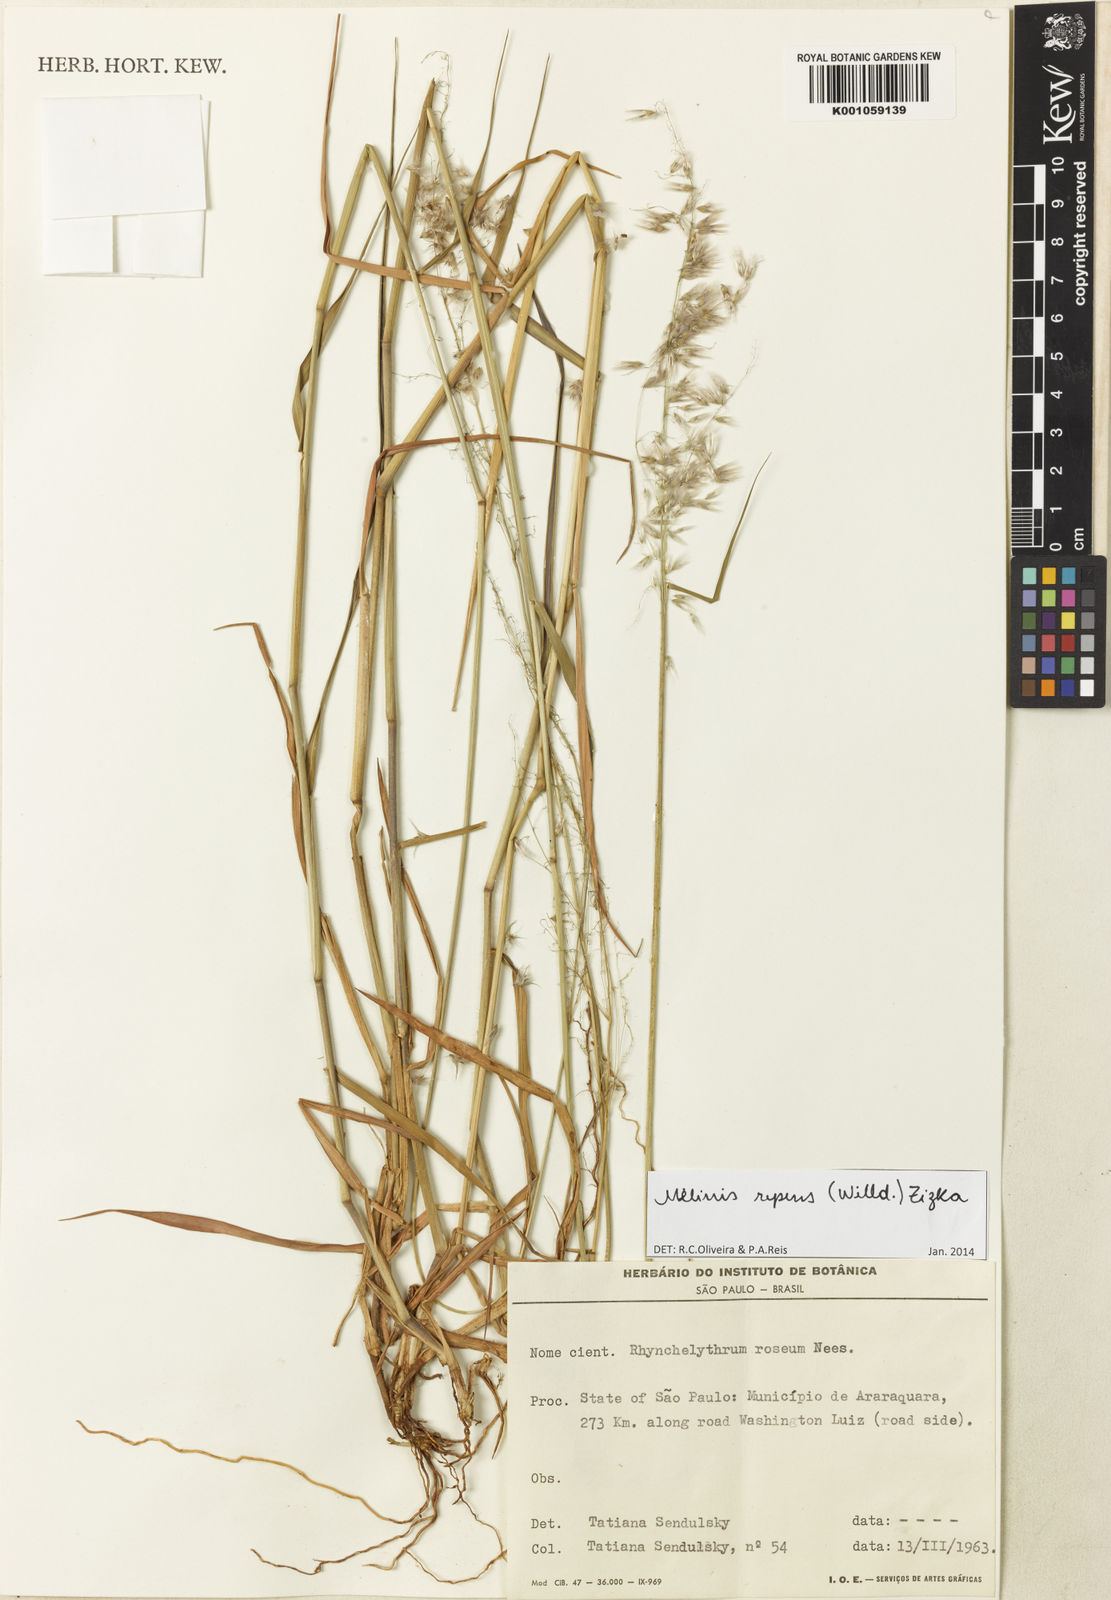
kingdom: Plantae
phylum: Tracheophyta
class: Liliopsida
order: Poales
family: Poaceae
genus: Melinis
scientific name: Melinis repens
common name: Rose natal grass
